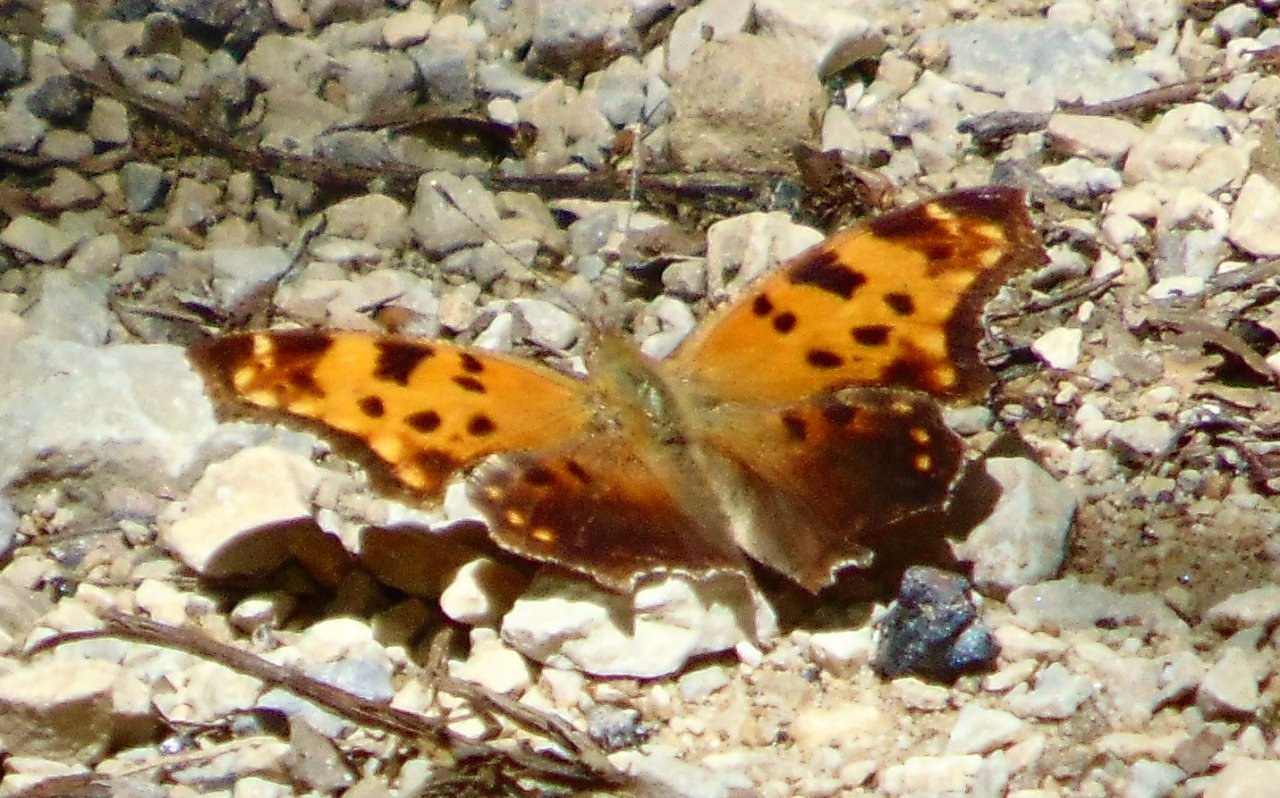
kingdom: Animalia
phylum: Arthropoda
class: Insecta
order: Lepidoptera
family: Nymphalidae
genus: Polygonia
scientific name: Polygonia comma
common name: Eastern Comma
